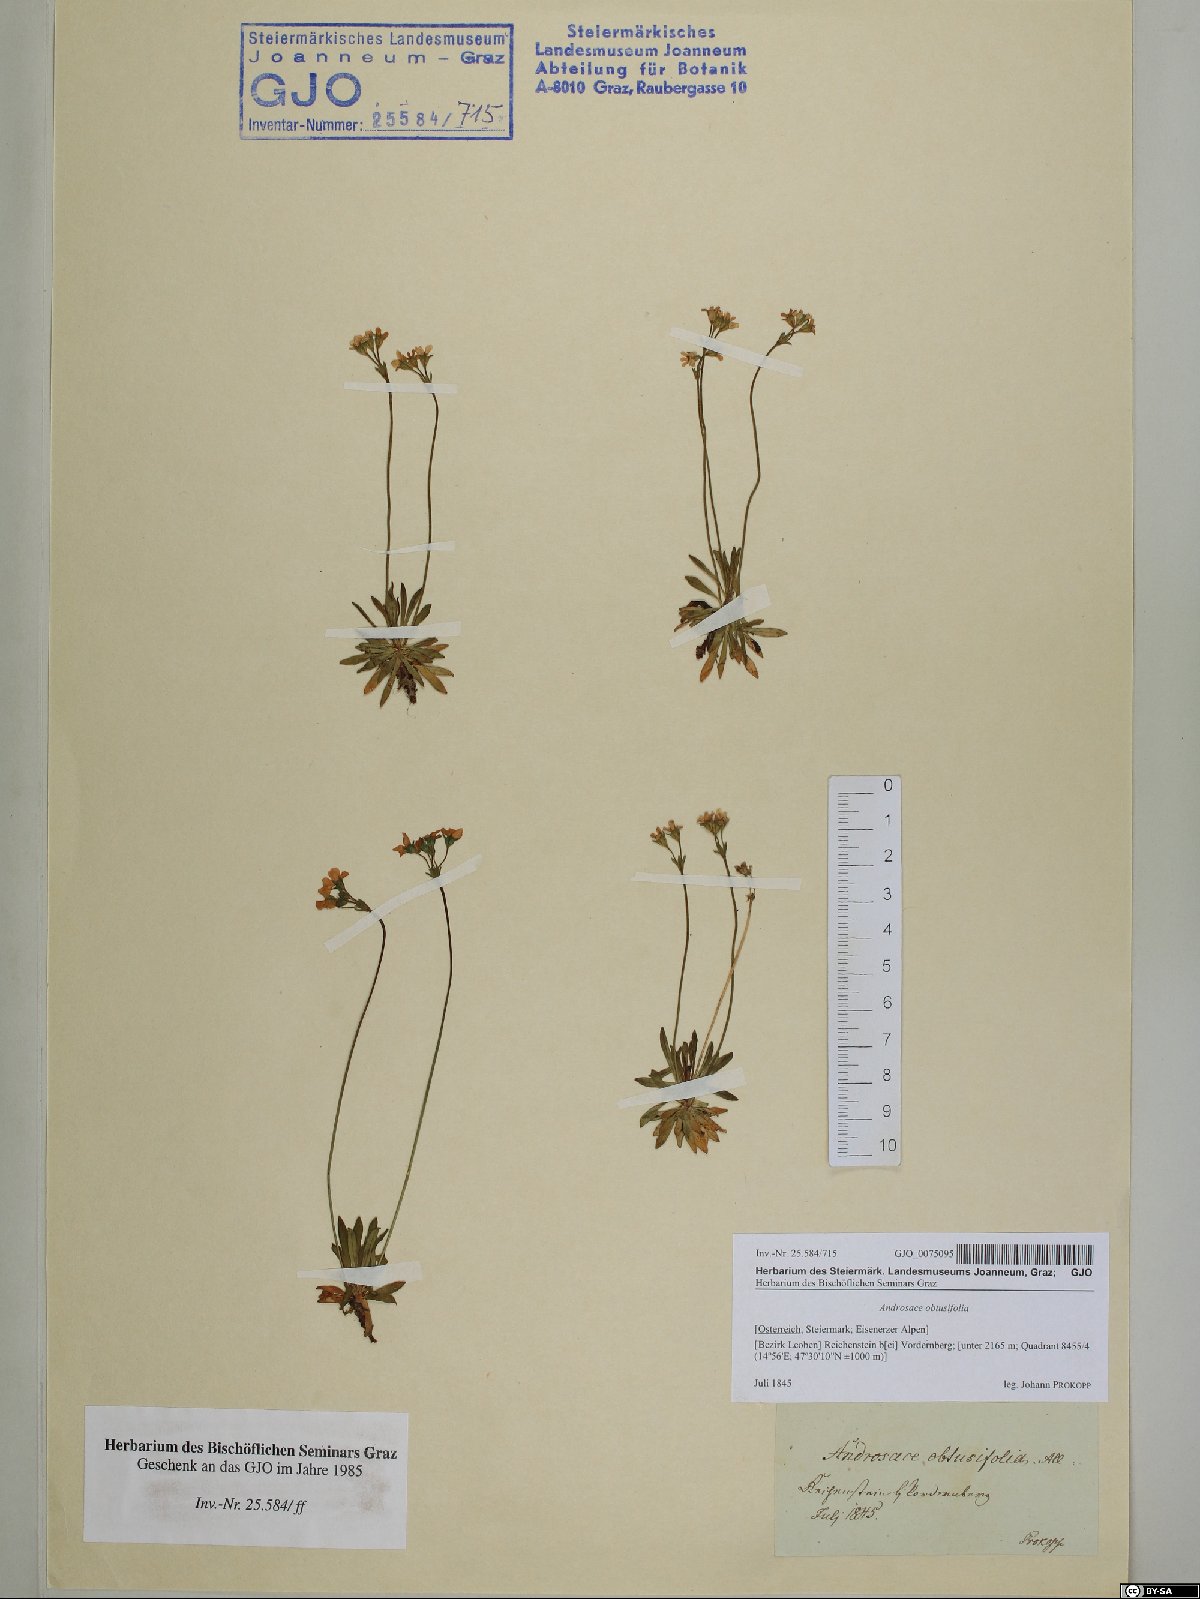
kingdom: Plantae
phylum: Tracheophyta
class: Magnoliopsida
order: Ericales
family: Primulaceae
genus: Androsace
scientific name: Androsace obtusifolia
